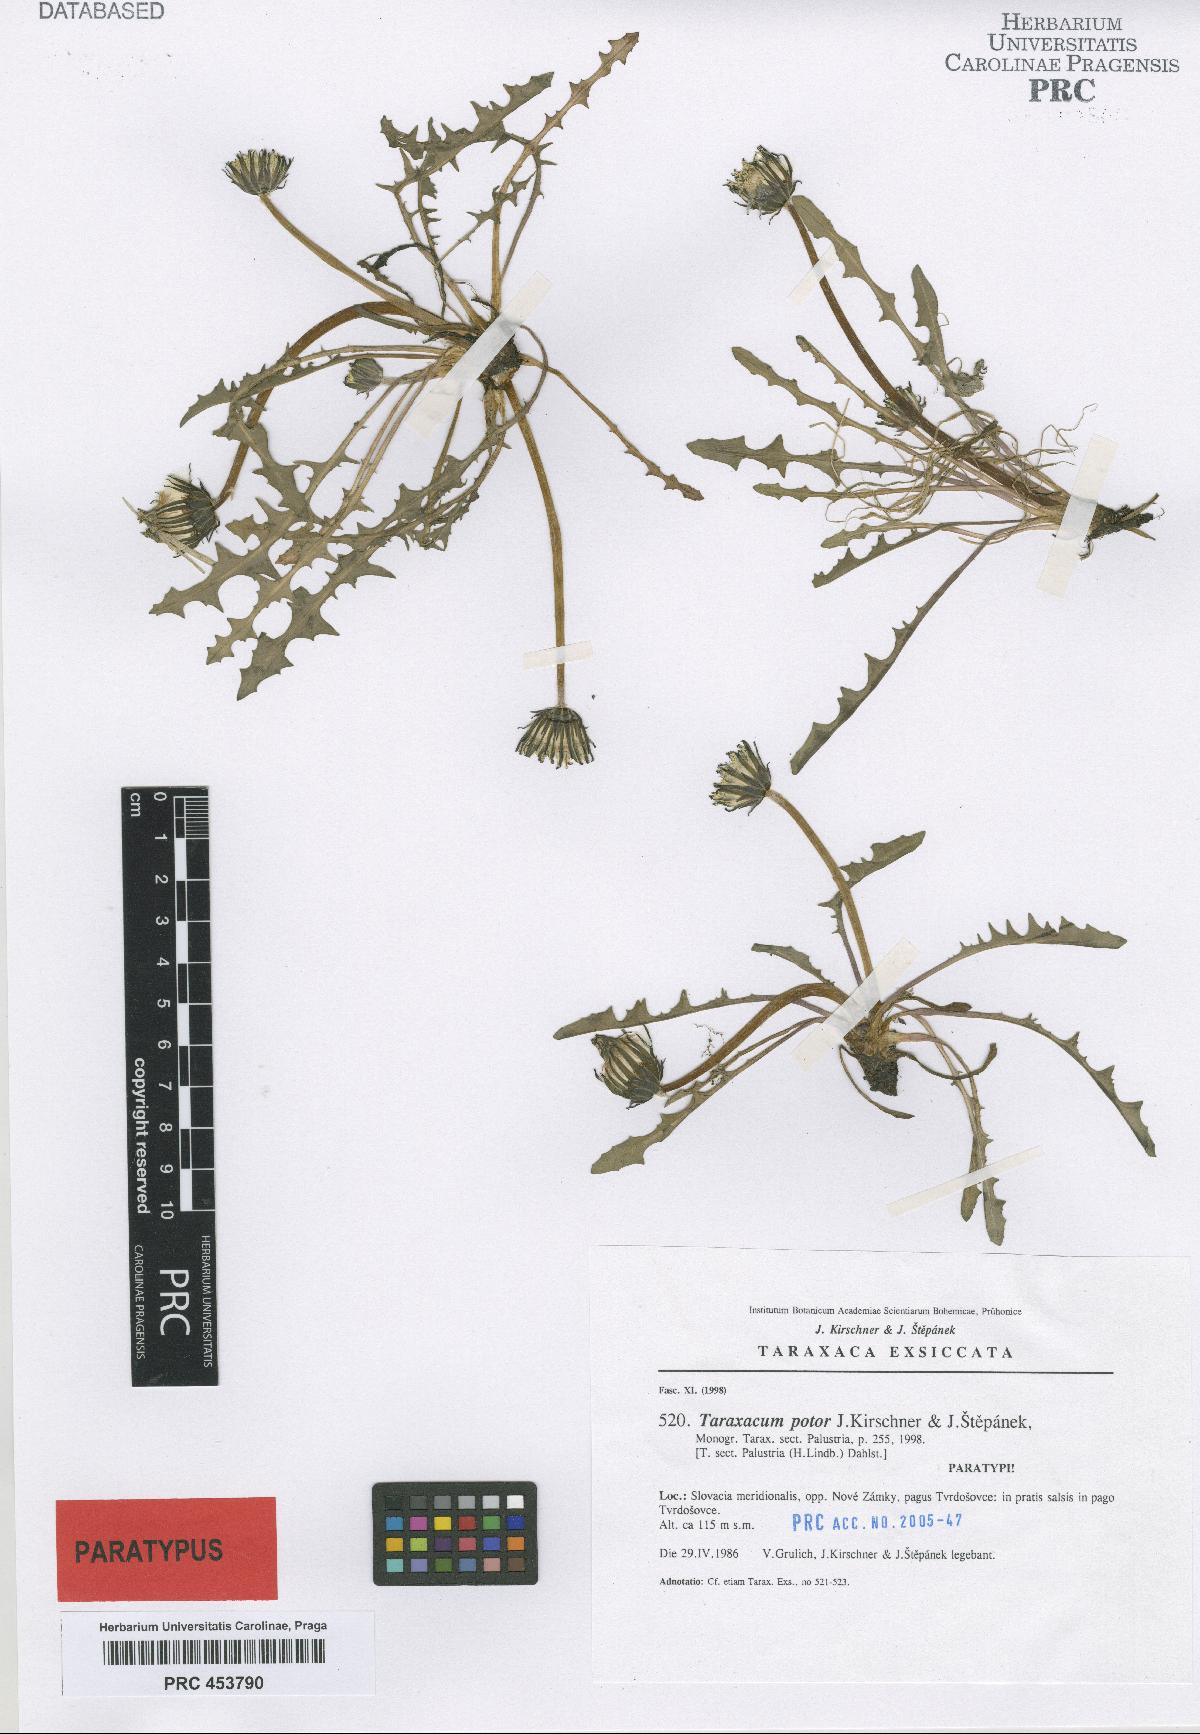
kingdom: Plantae
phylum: Tracheophyta
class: Magnoliopsida
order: Asterales
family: Asteraceae
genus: Taraxacum
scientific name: Taraxacum potor
